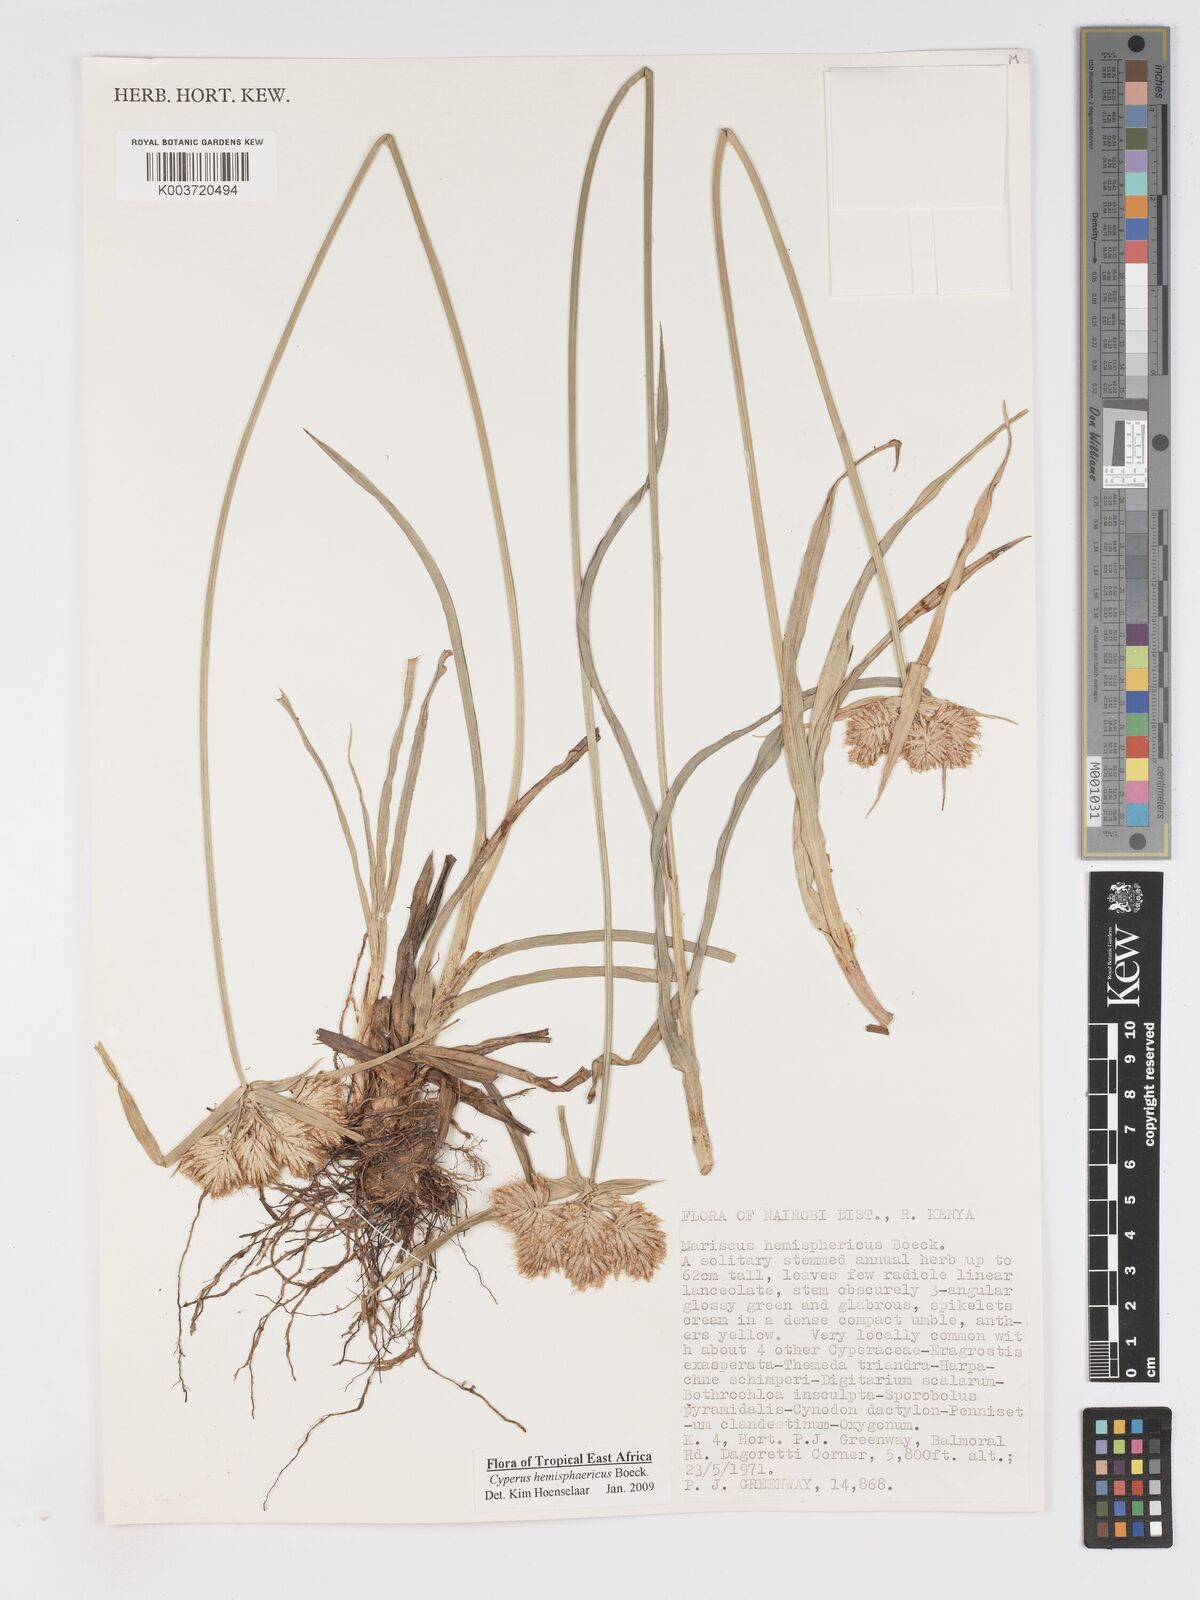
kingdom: Plantae
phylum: Tracheophyta
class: Liliopsida
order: Poales
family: Cyperaceae
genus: Cyperus
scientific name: Cyperus hemisphaericus
